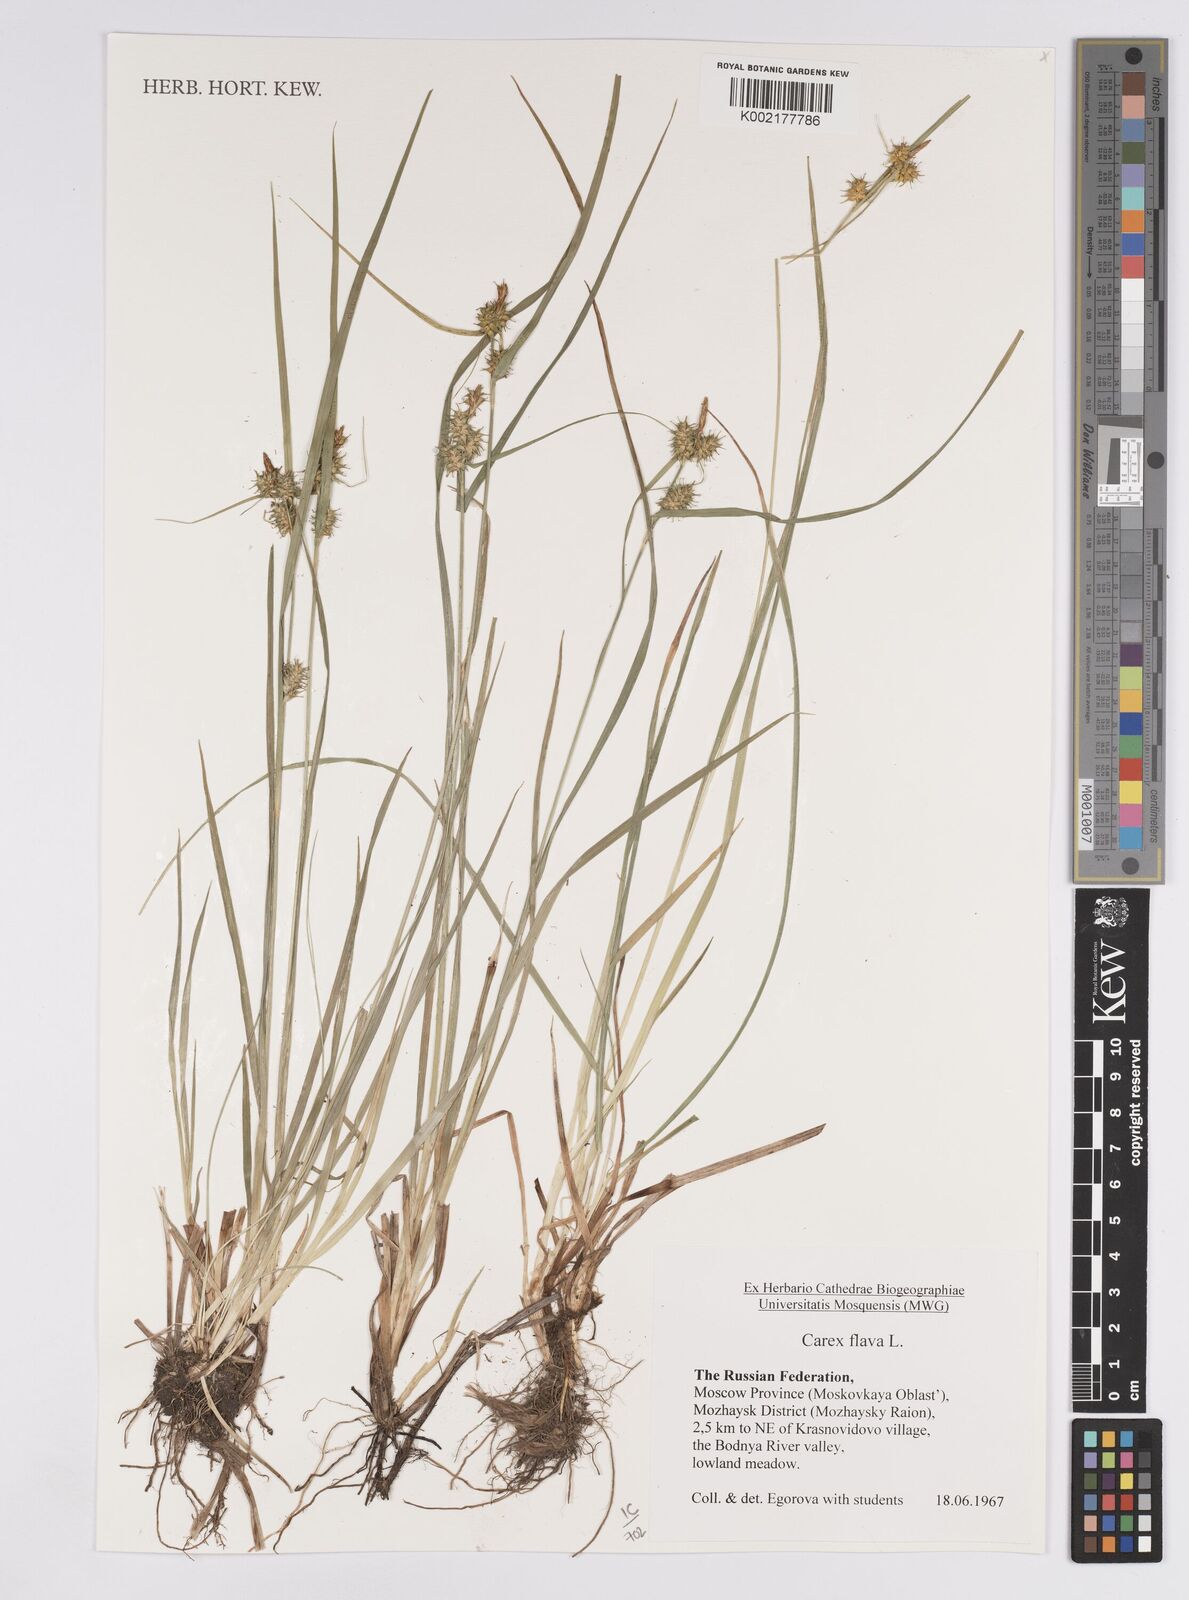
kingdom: Plantae
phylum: Tracheophyta
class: Liliopsida
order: Poales
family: Cyperaceae
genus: Carex
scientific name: Carex flava
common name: Large yellow-sedge
